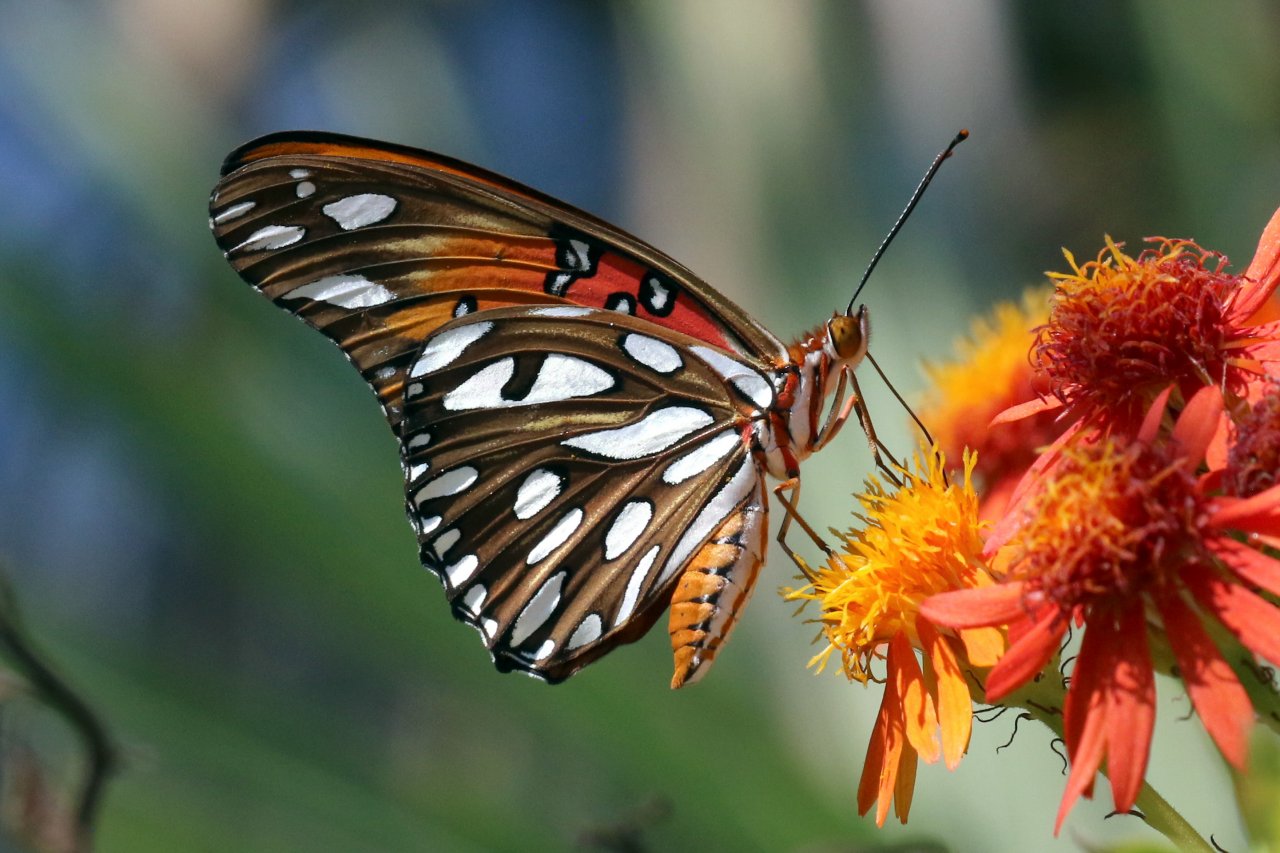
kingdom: Animalia
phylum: Arthropoda
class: Insecta
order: Lepidoptera
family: Nymphalidae
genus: Dione
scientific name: Dione vanillae
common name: Gulf Fritillary
